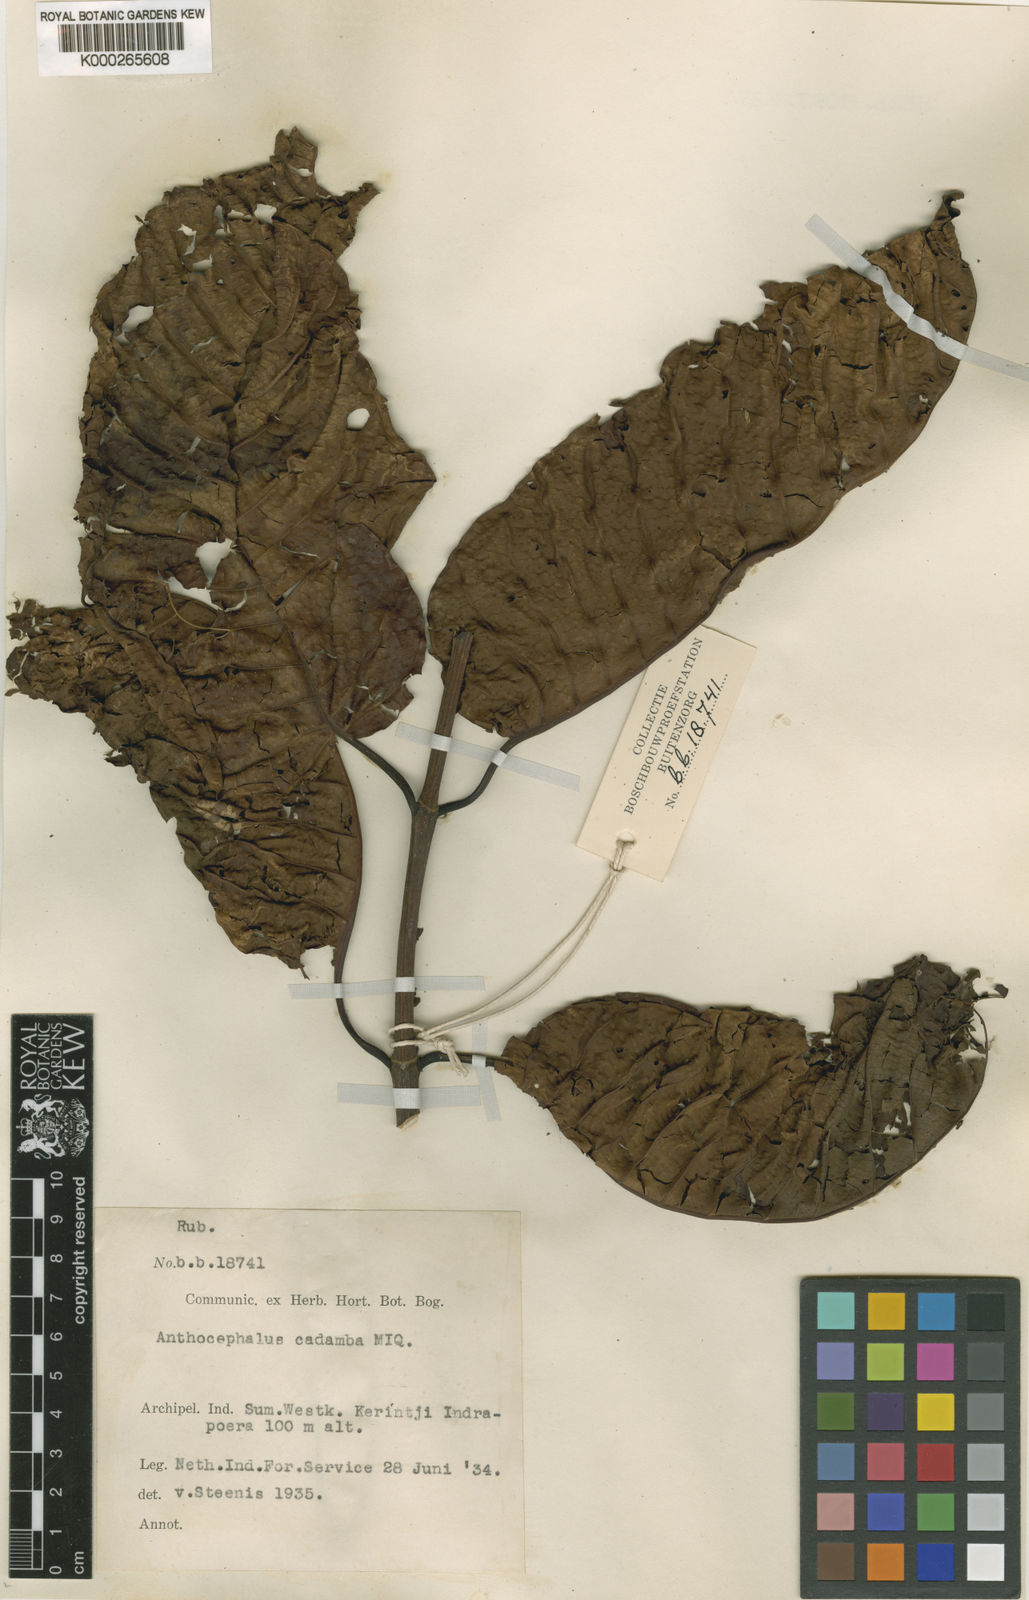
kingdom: Plantae
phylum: Tracheophyta
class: Magnoliopsida
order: Gentianales
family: Rubiaceae
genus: Neolamarckia
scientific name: Neolamarckia cadamba
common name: Leichhardt-pine
